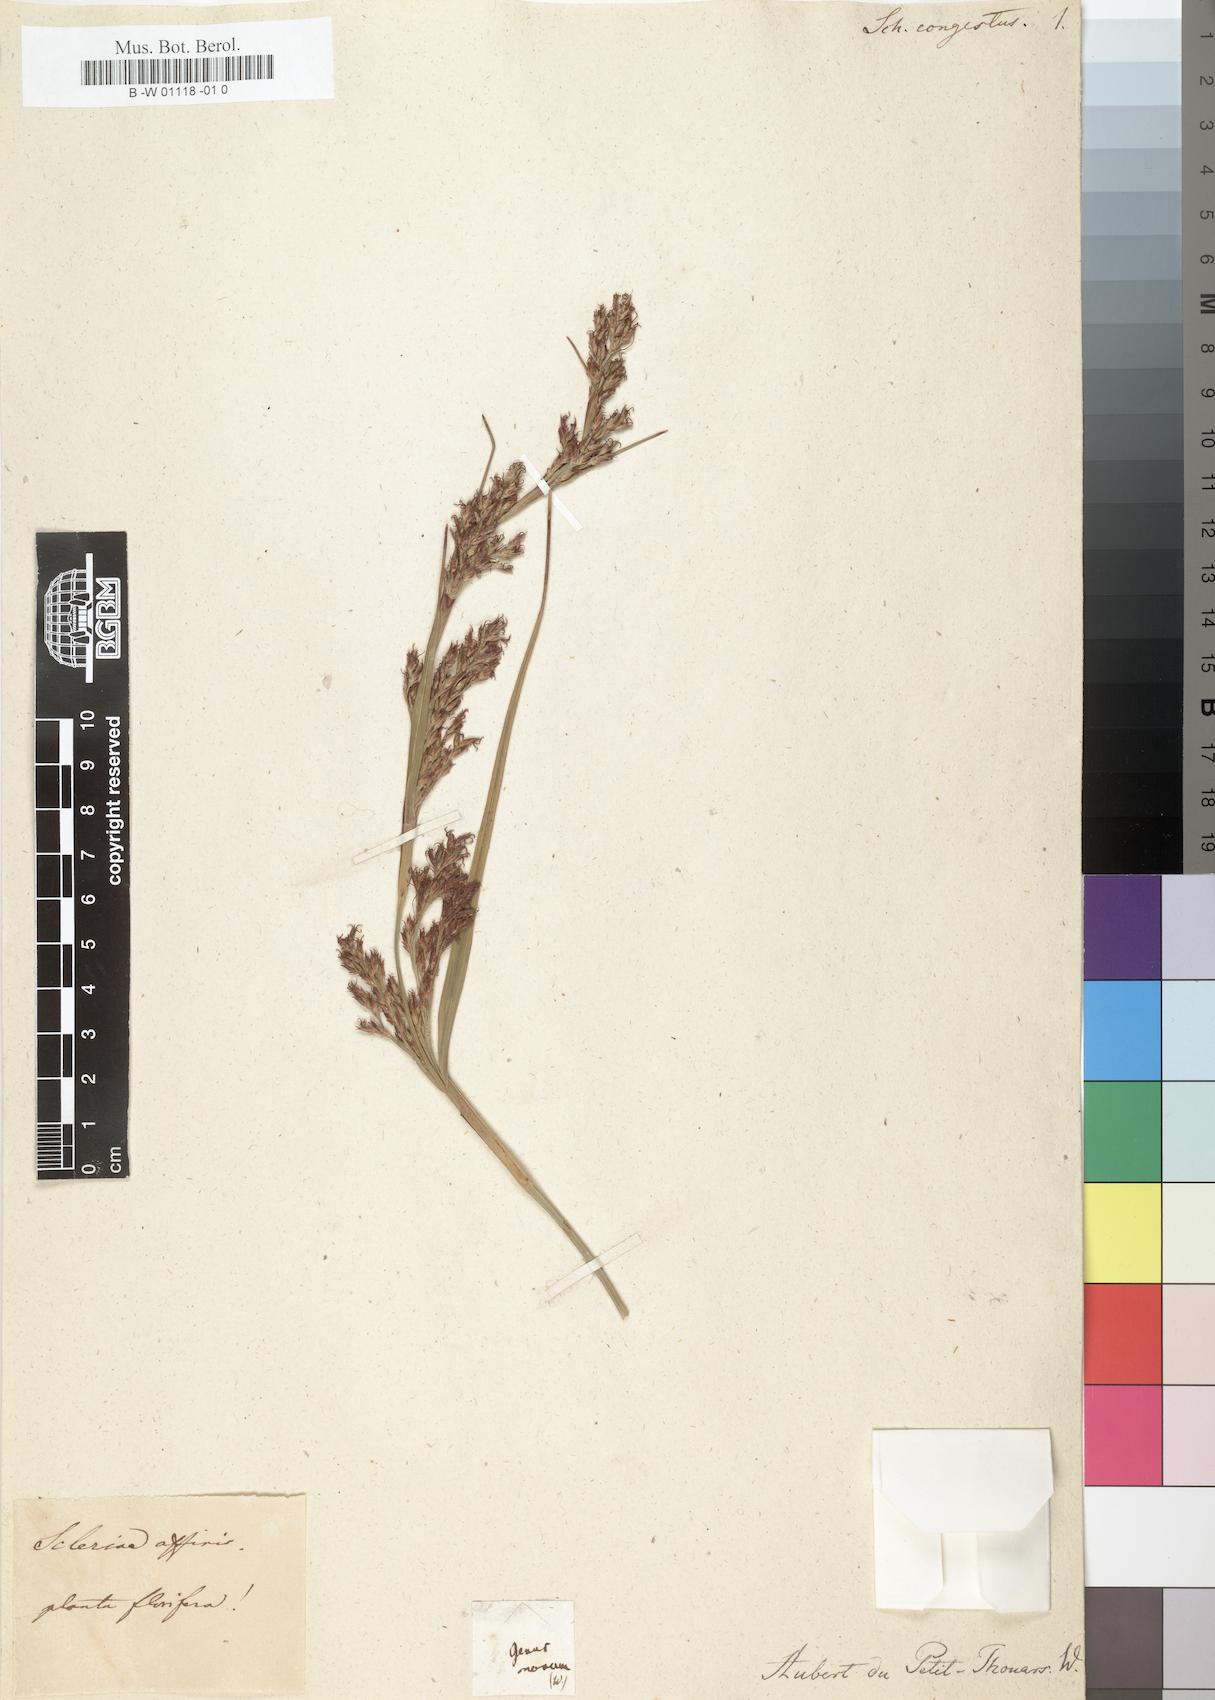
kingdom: Plantae
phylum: Tracheophyta
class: Liliopsida
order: Poales
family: Cyperaceae
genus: Cladium
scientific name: Cladium mariscus
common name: Great fen-sedge
